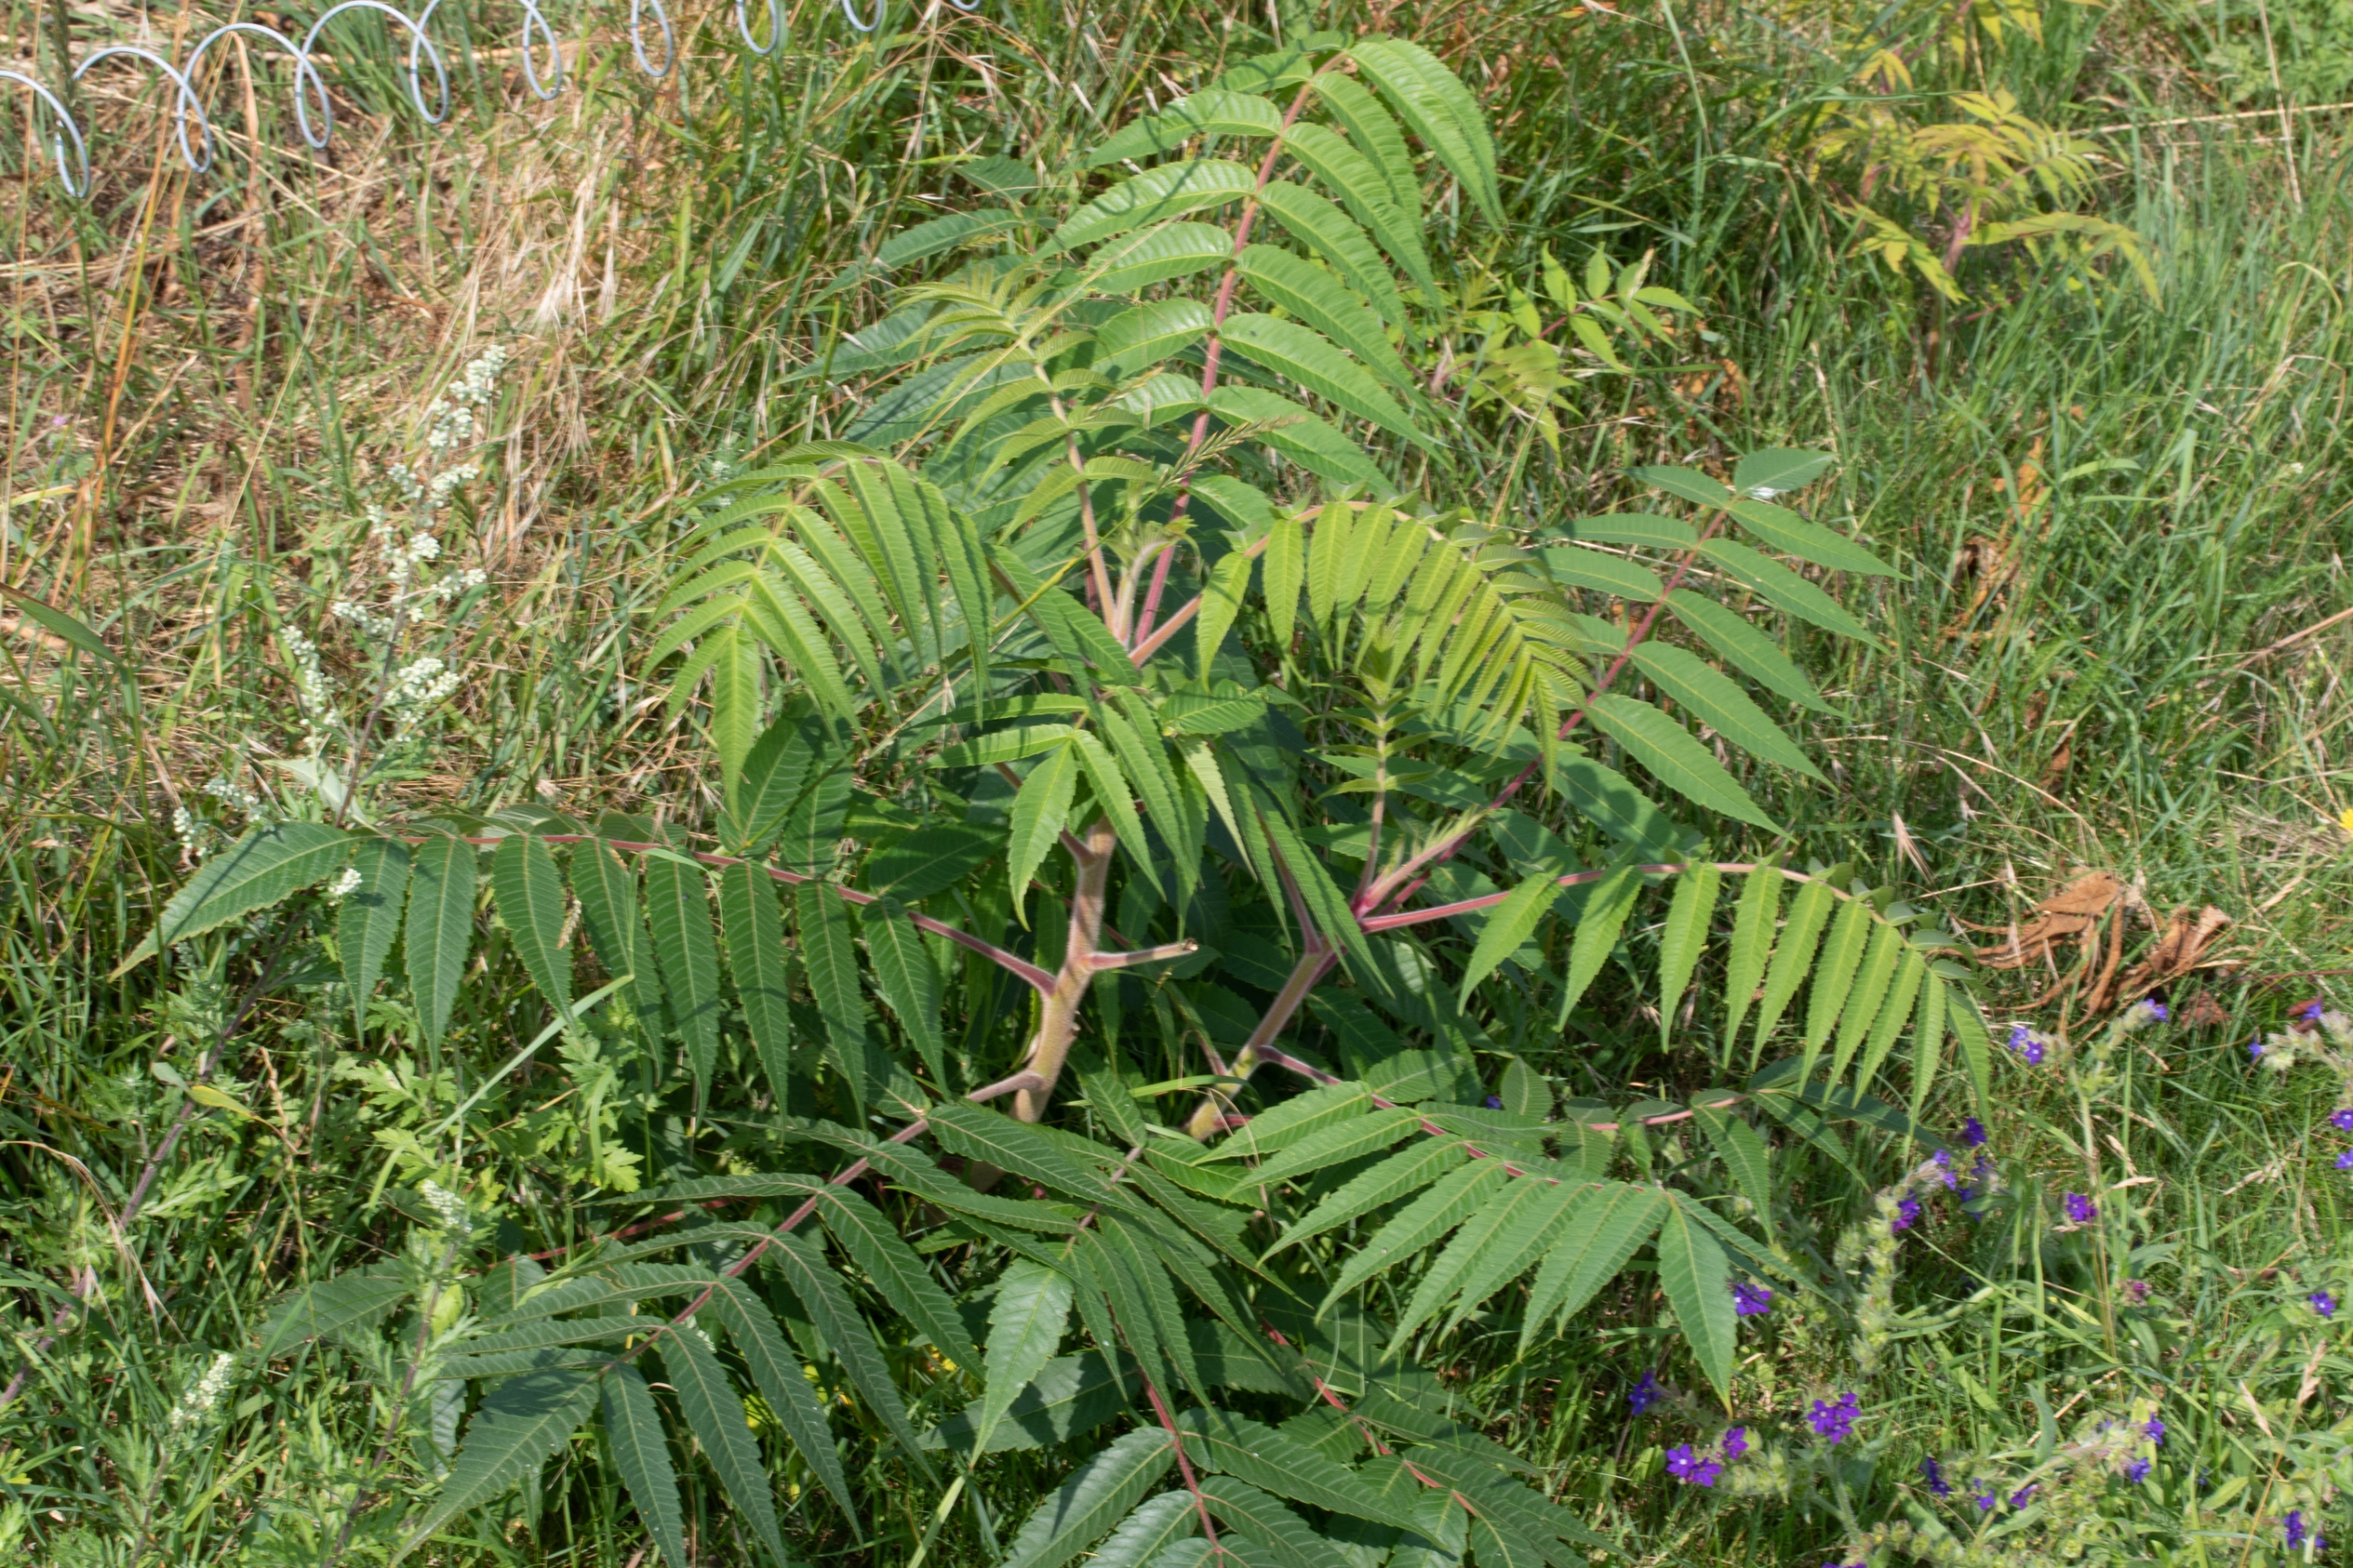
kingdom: Plantae
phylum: Tracheophyta
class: Magnoliopsida
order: Sapindales
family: Anacardiaceae
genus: Rhus
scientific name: Rhus typhina
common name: Hjortetaktræ
